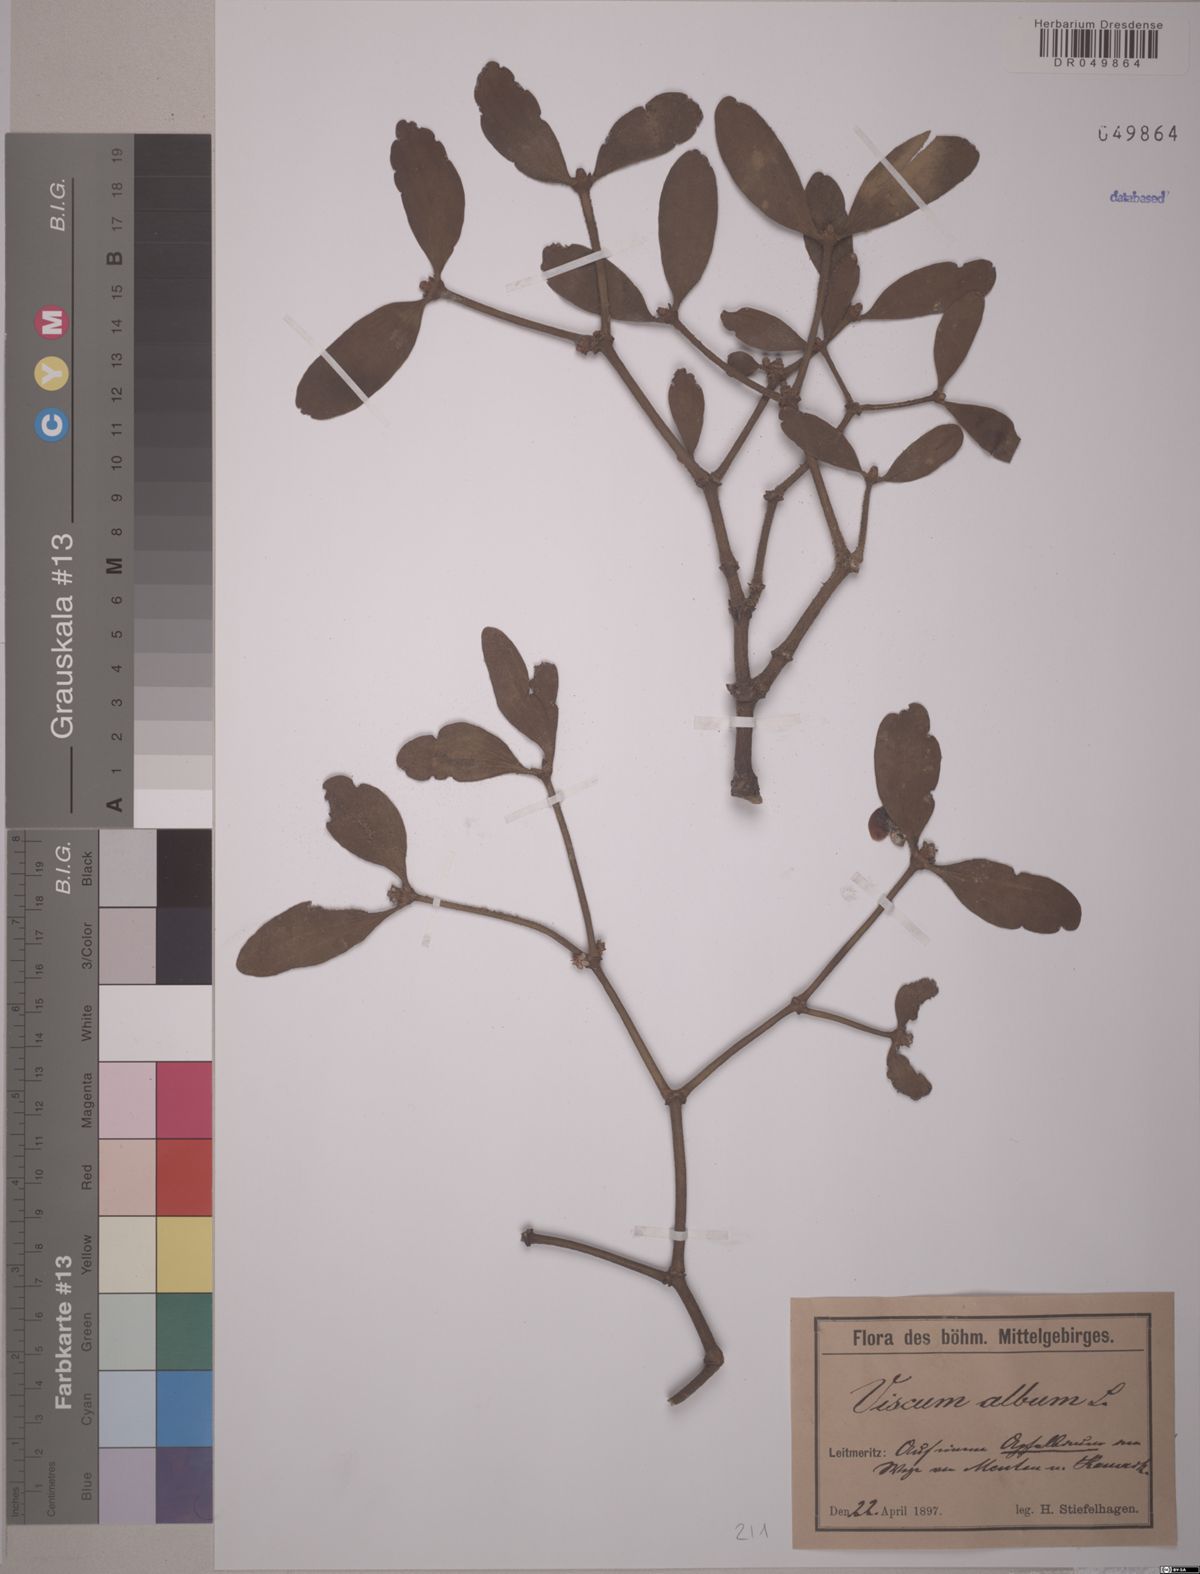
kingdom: Plantae
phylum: Tracheophyta
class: Magnoliopsida
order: Santalales
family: Viscaceae
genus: Viscum
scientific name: Viscum album
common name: Mistletoe
